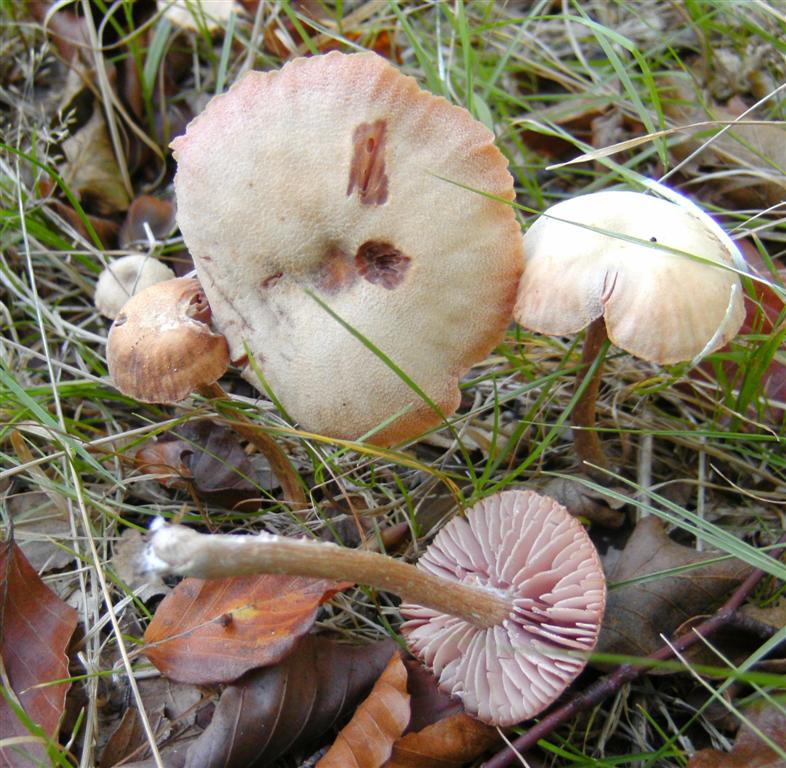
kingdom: Fungi
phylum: Basidiomycota
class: Agaricomycetes
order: Agaricales
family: Hydnangiaceae
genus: Laccaria
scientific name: Laccaria proxima
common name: stor ametysthat
